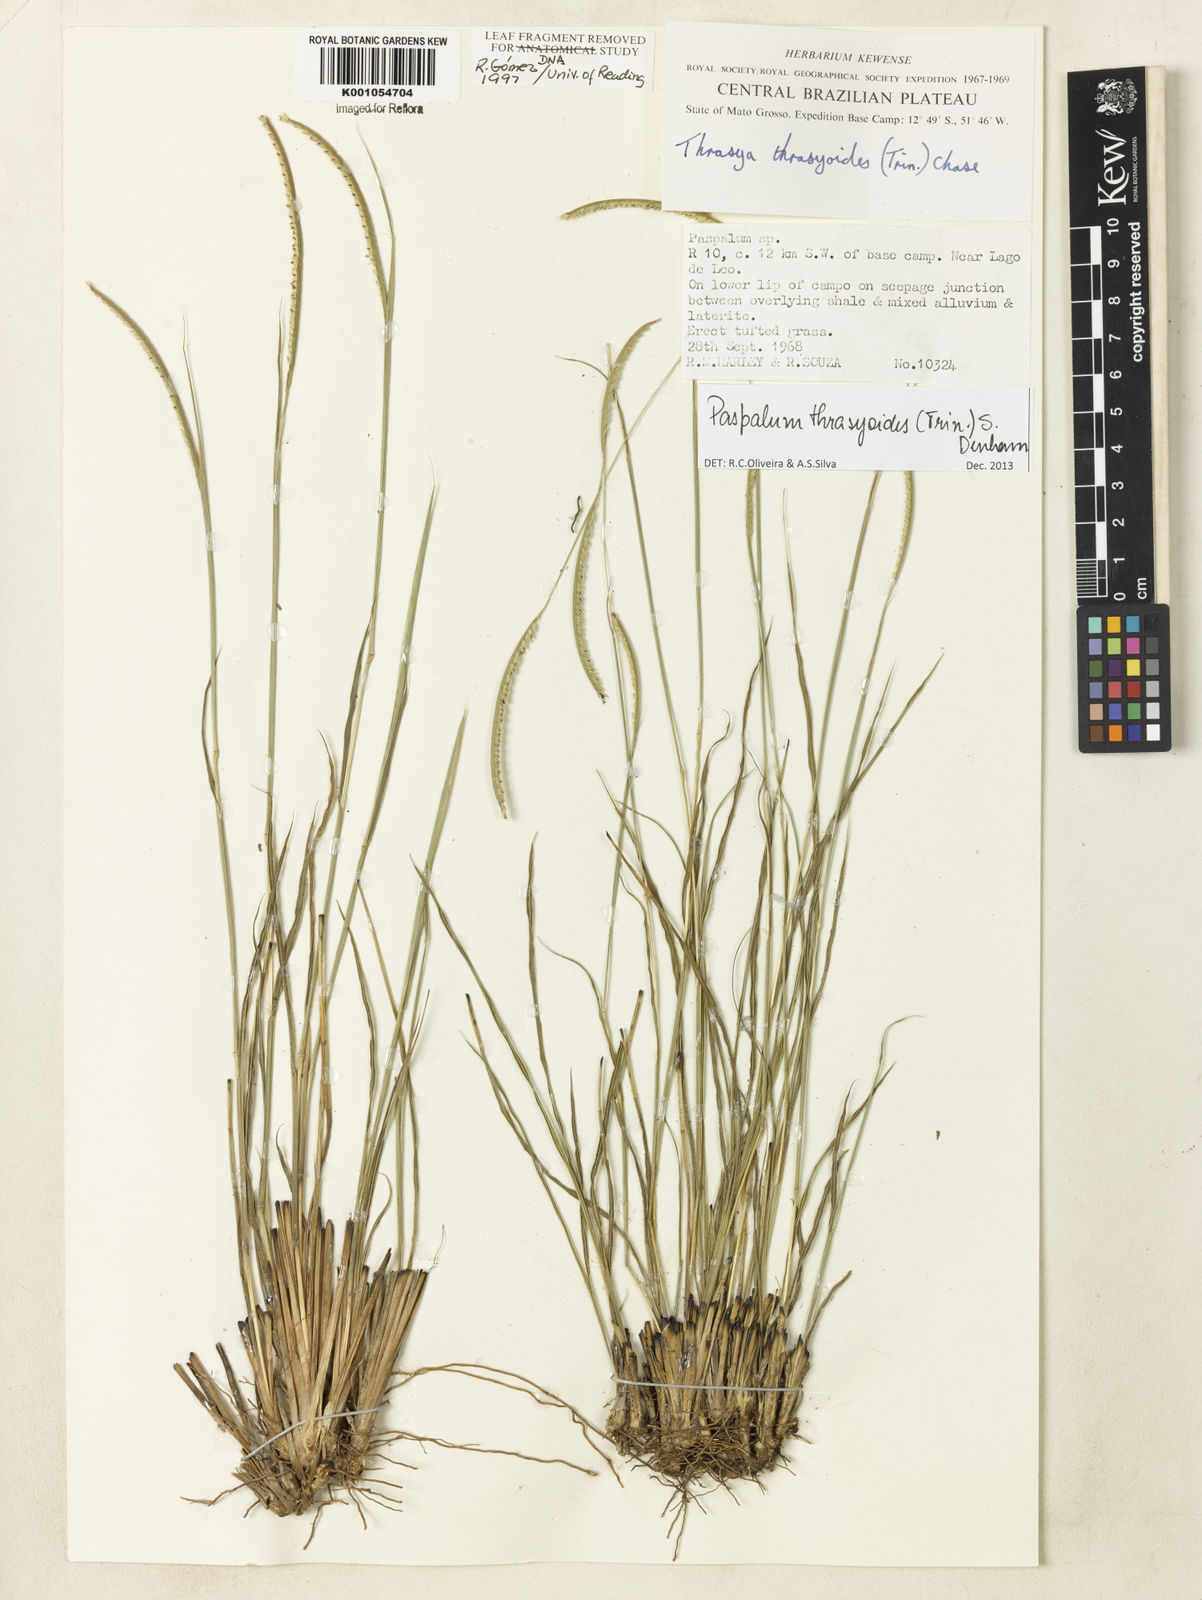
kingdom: Plantae
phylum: Tracheophyta
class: Liliopsida
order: Poales
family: Poaceae
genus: Paspalum
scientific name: Paspalum thrasyoides
